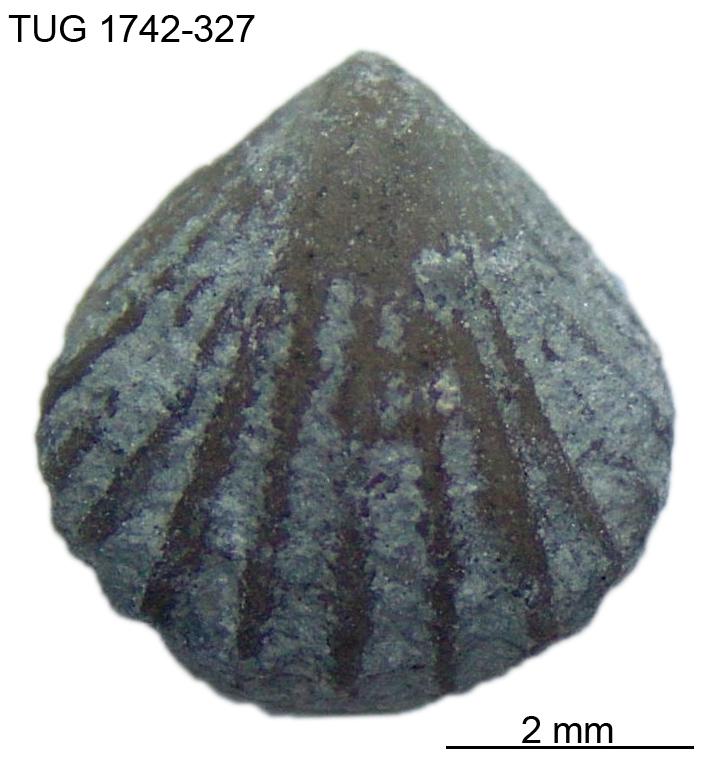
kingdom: Animalia
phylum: Brachiopoda
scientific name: Brachiopoda
